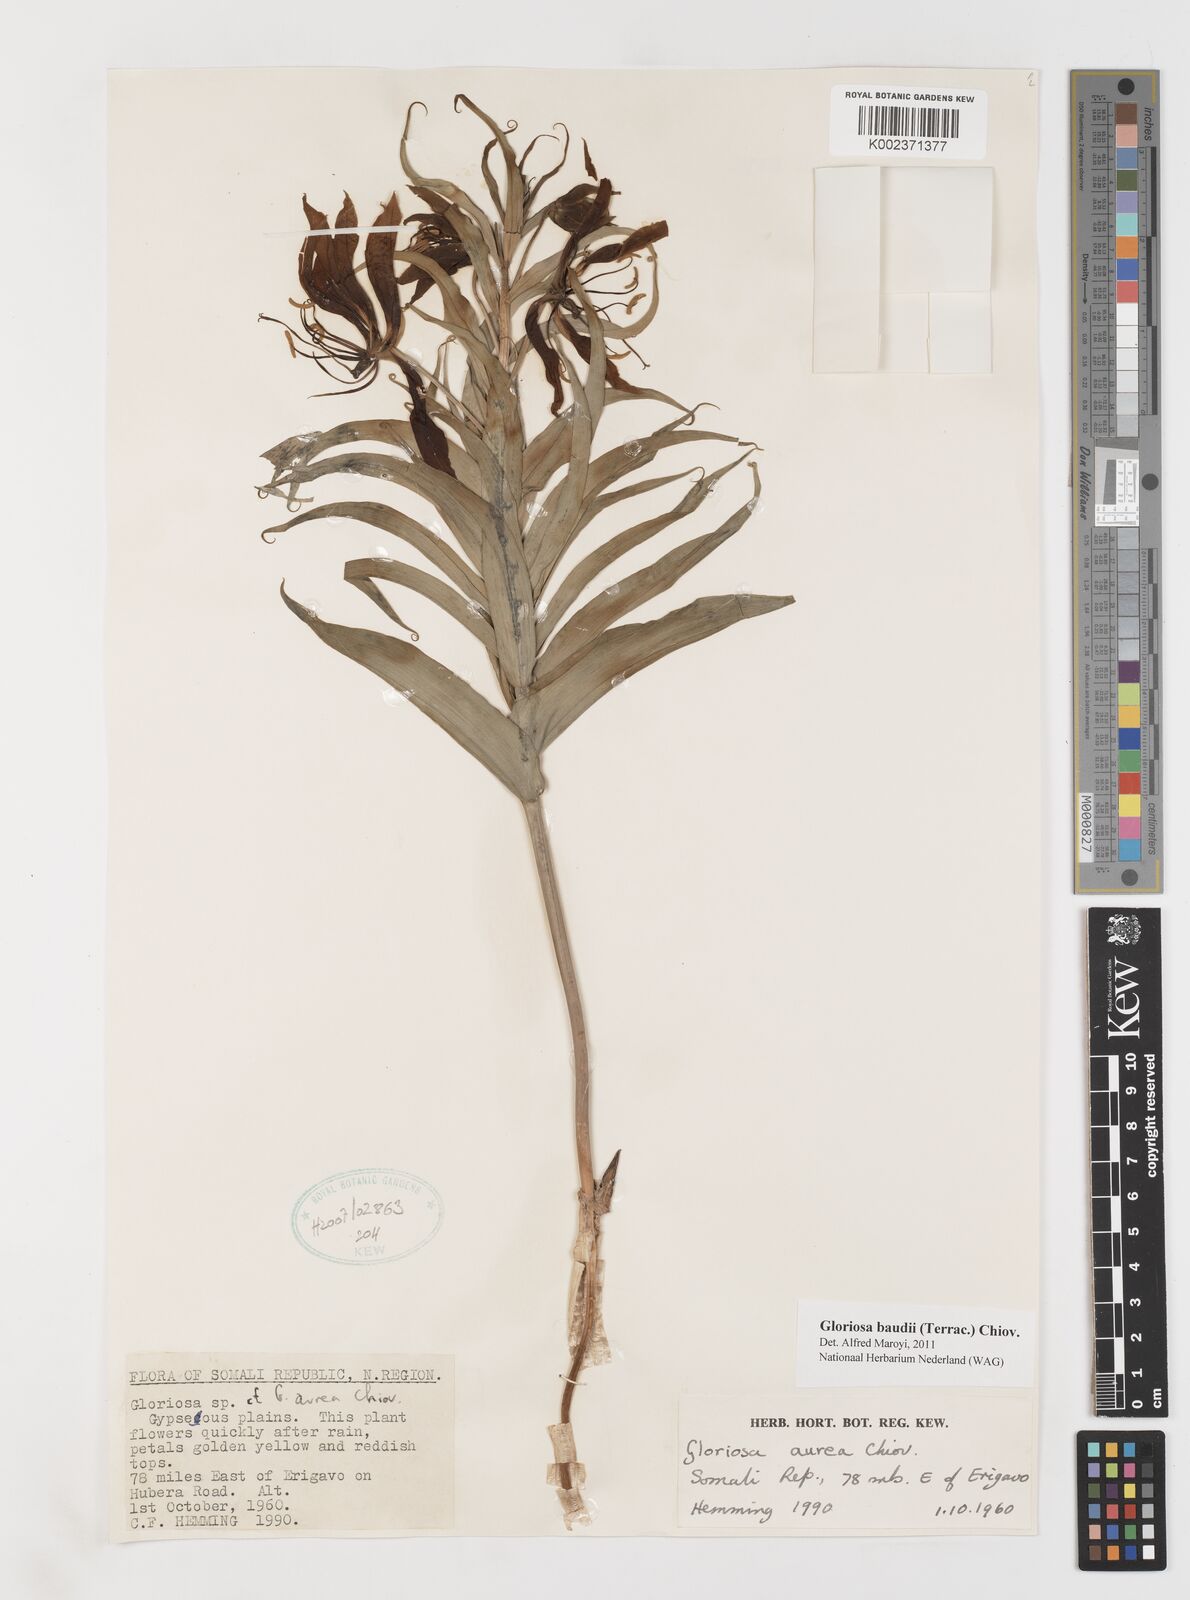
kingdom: Plantae
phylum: Tracheophyta
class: Liliopsida
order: Liliales
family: Colchicaceae
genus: Gloriosa
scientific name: Gloriosa baudii
